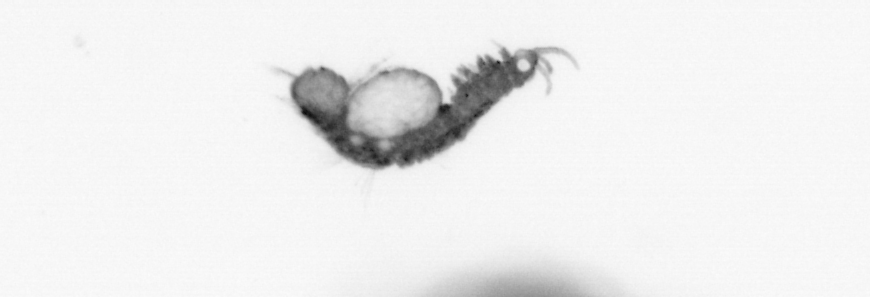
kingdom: Animalia
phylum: Annelida
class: Polychaeta
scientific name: Polychaeta
